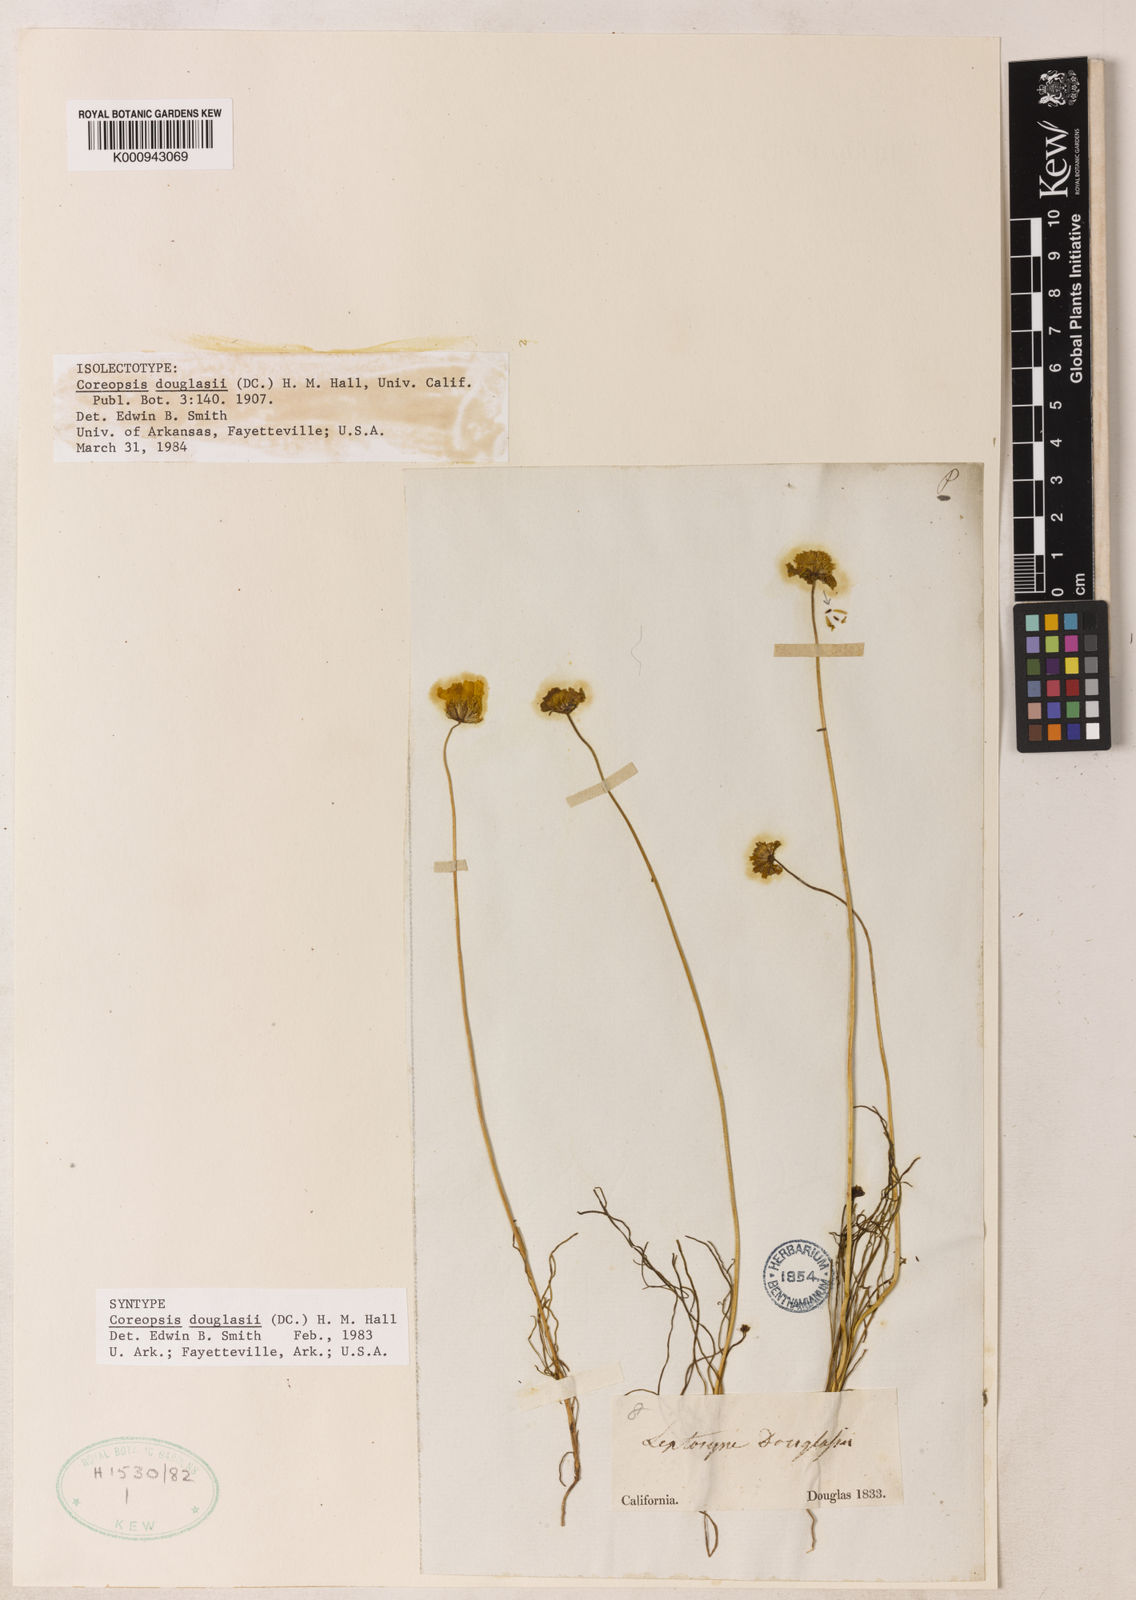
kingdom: Plantae
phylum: Tracheophyta
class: Magnoliopsida
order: Asterales
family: Asteraceae
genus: Coreopsis
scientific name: Coreopsis douglasii
